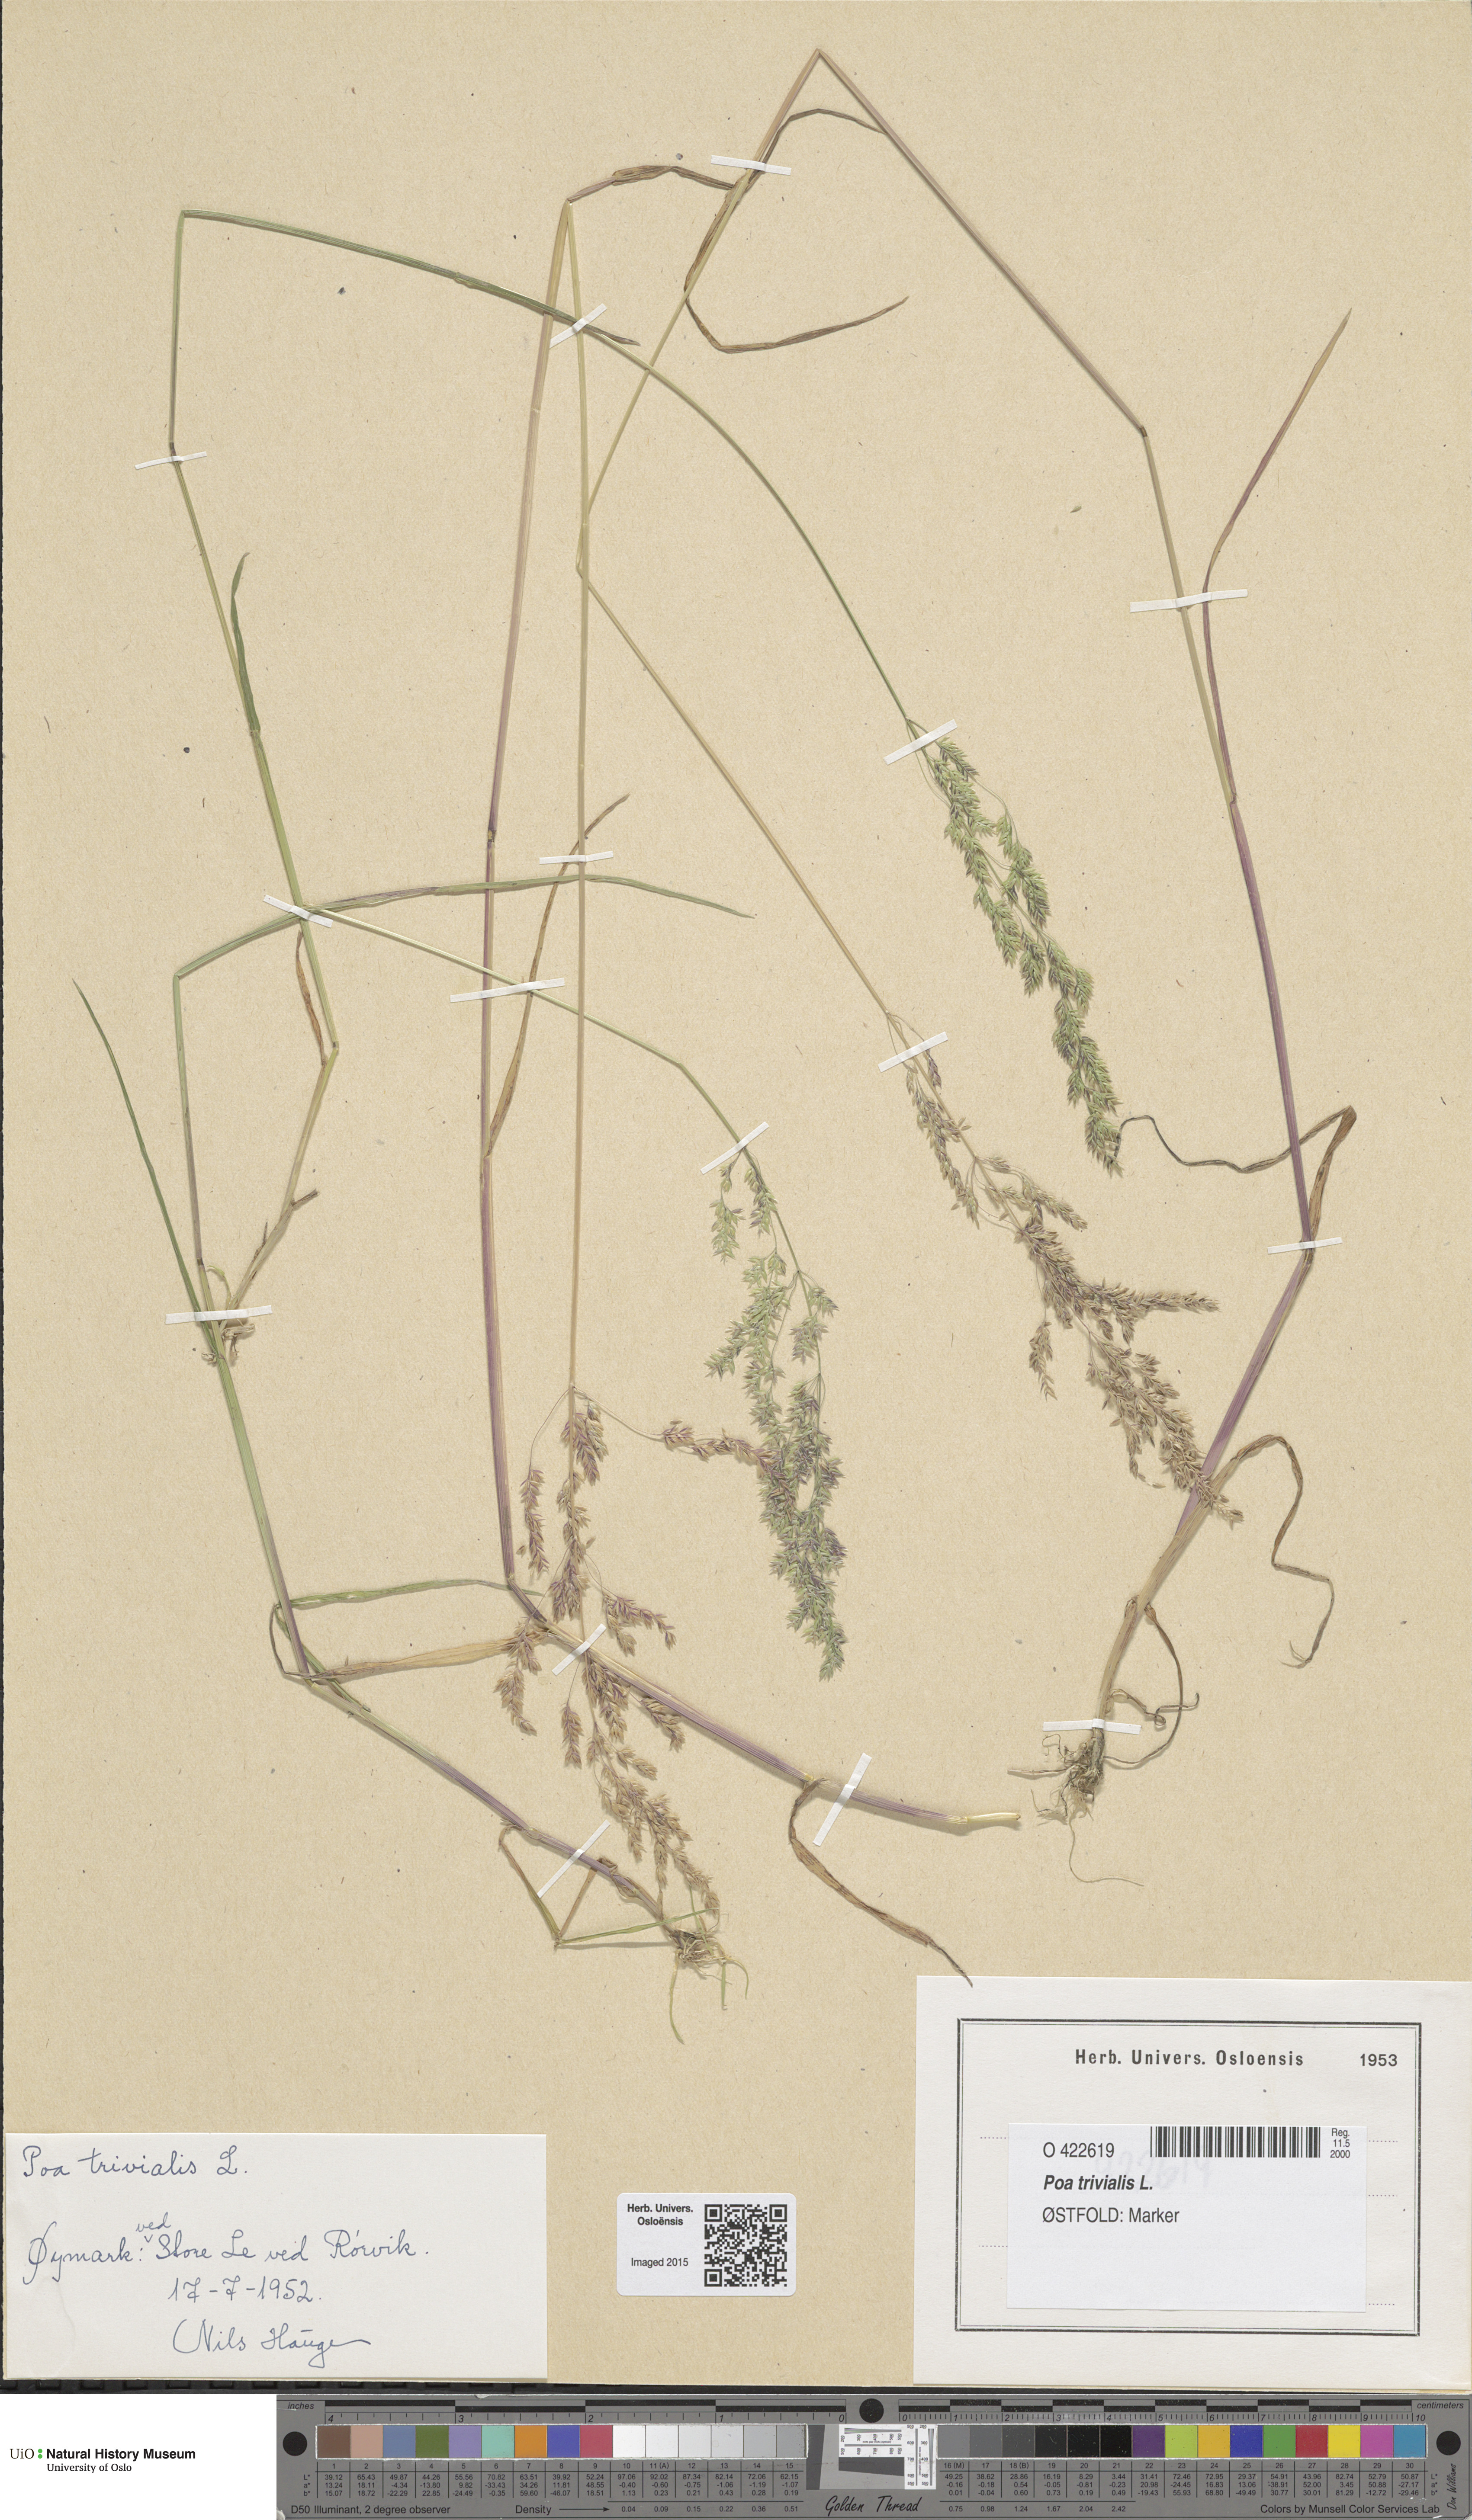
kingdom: Plantae
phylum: Tracheophyta
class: Liliopsida
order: Poales
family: Poaceae
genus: Poa
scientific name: Poa trivialis
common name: Rough bluegrass
